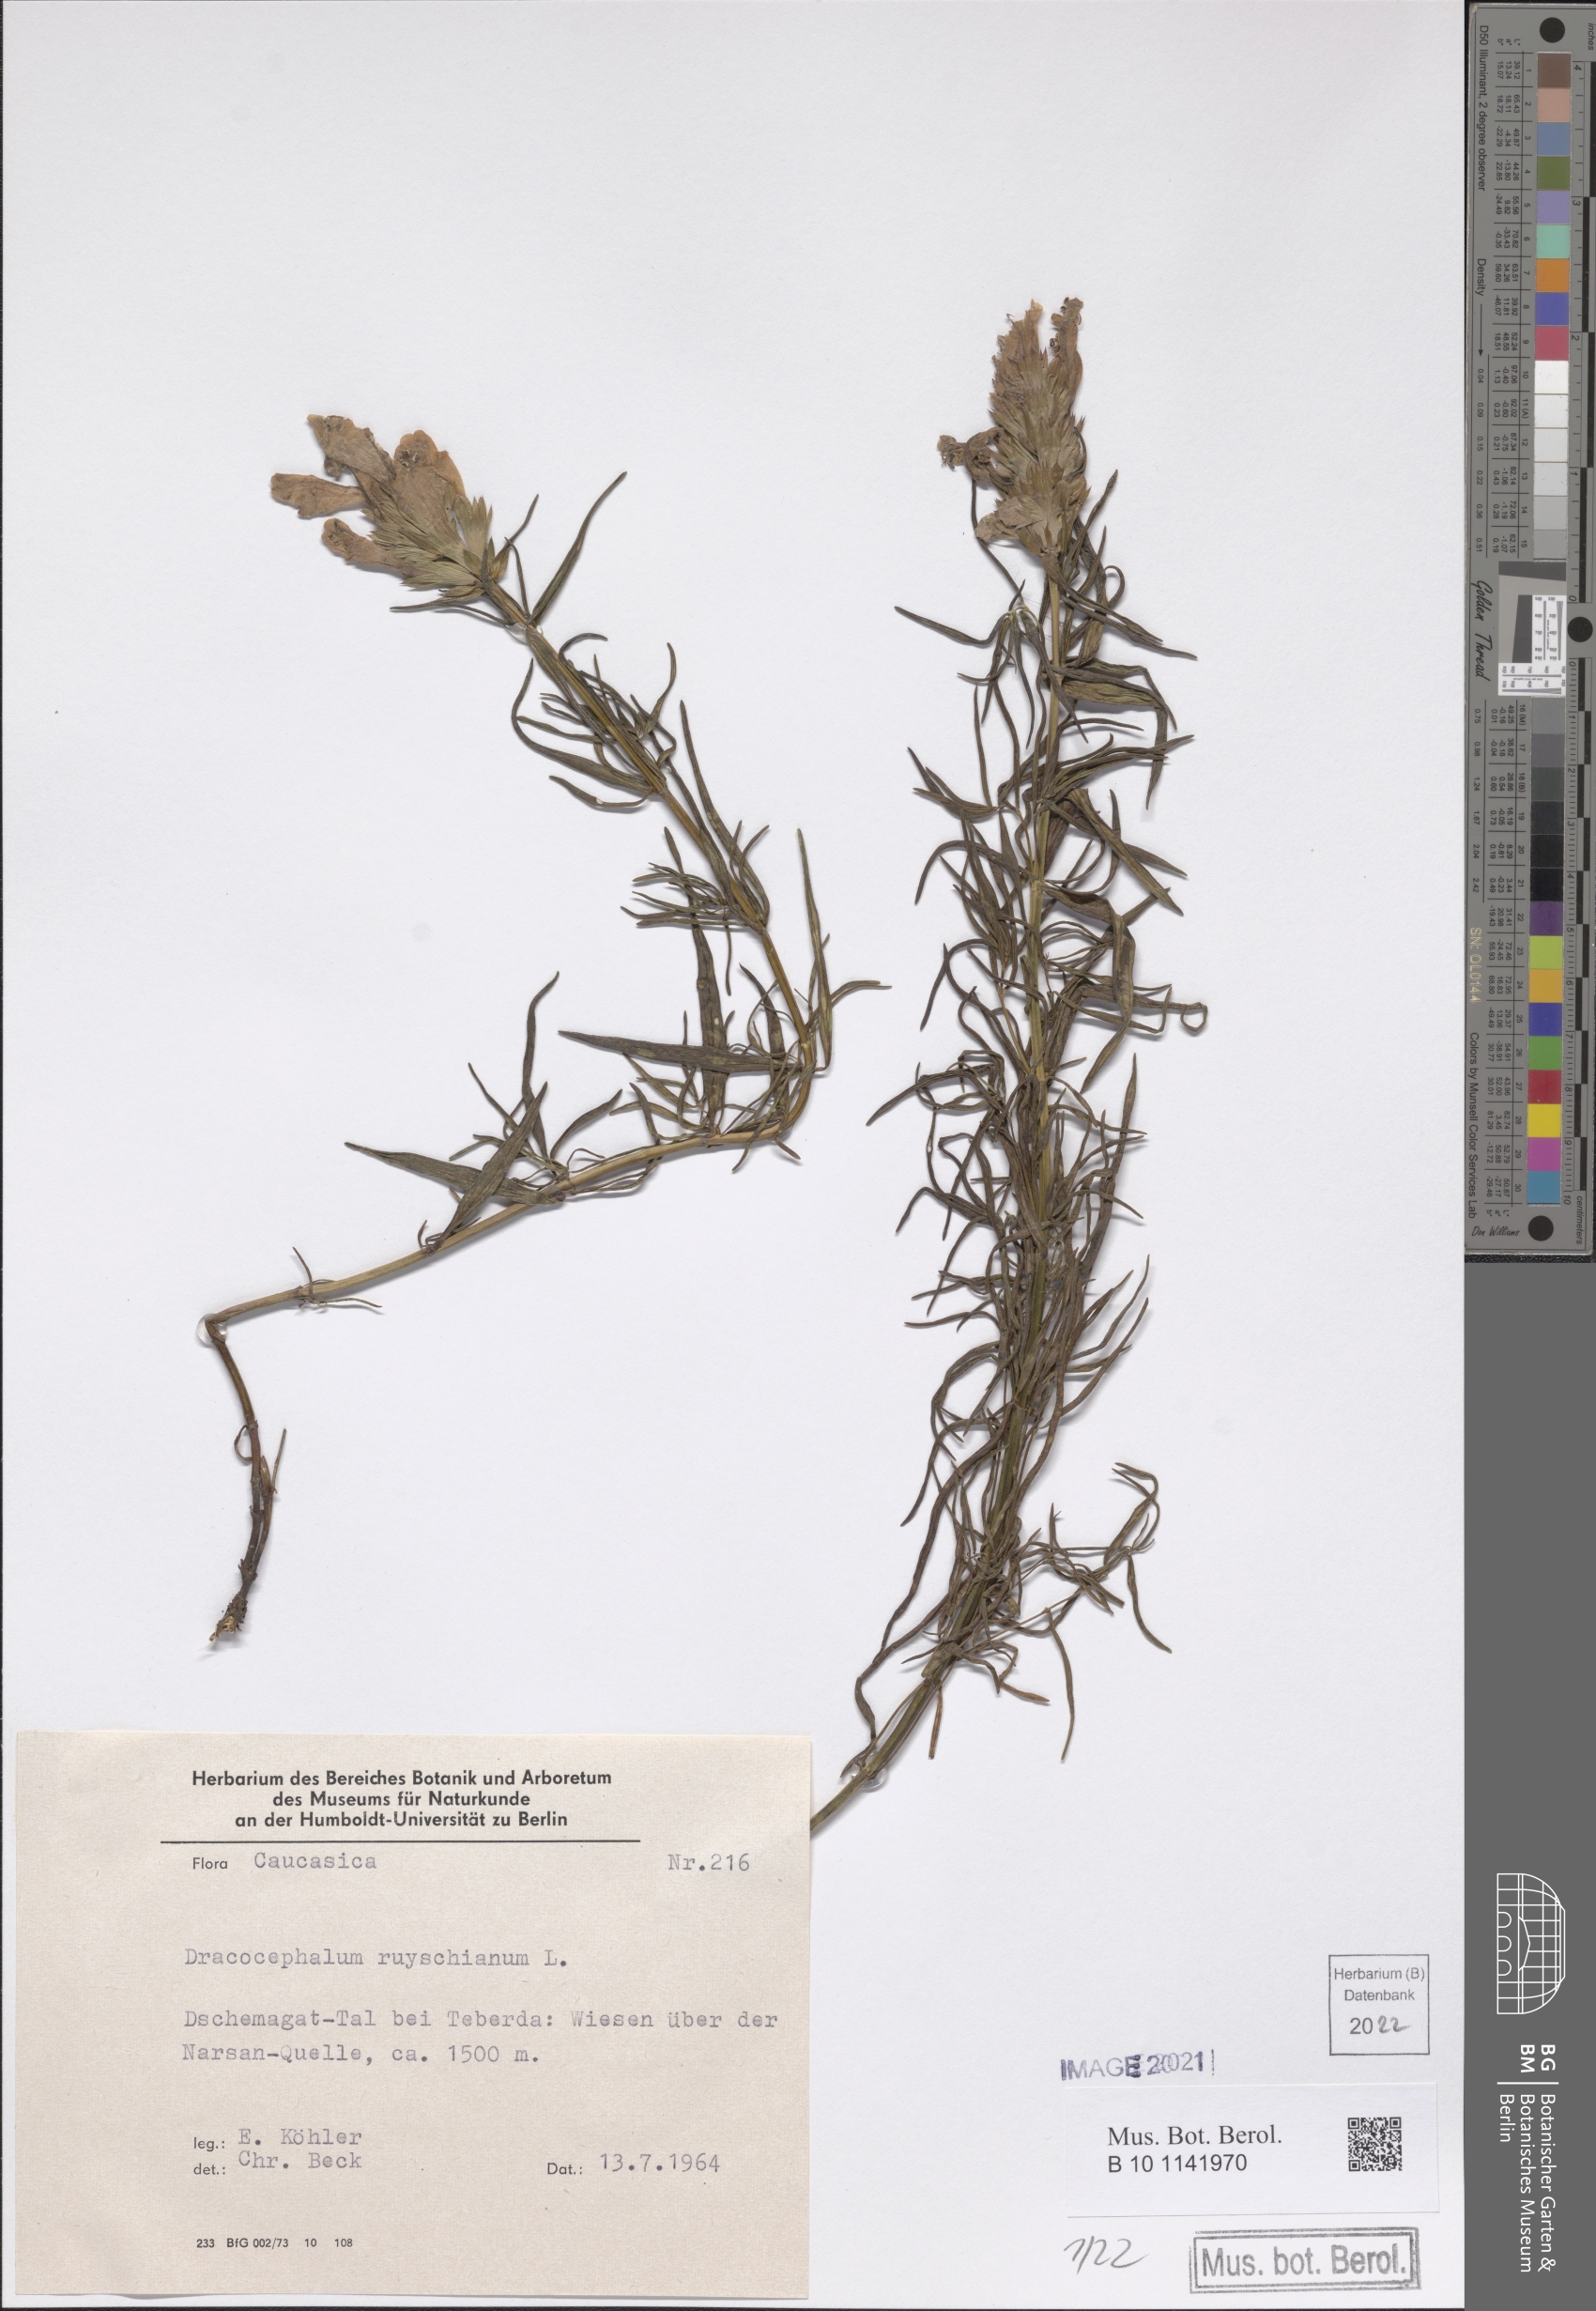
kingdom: Plantae
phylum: Tracheophyta
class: Magnoliopsida
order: Lamiales
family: Lamiaceae
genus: Dracocephalum
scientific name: Dracocephalum ruyschiana
